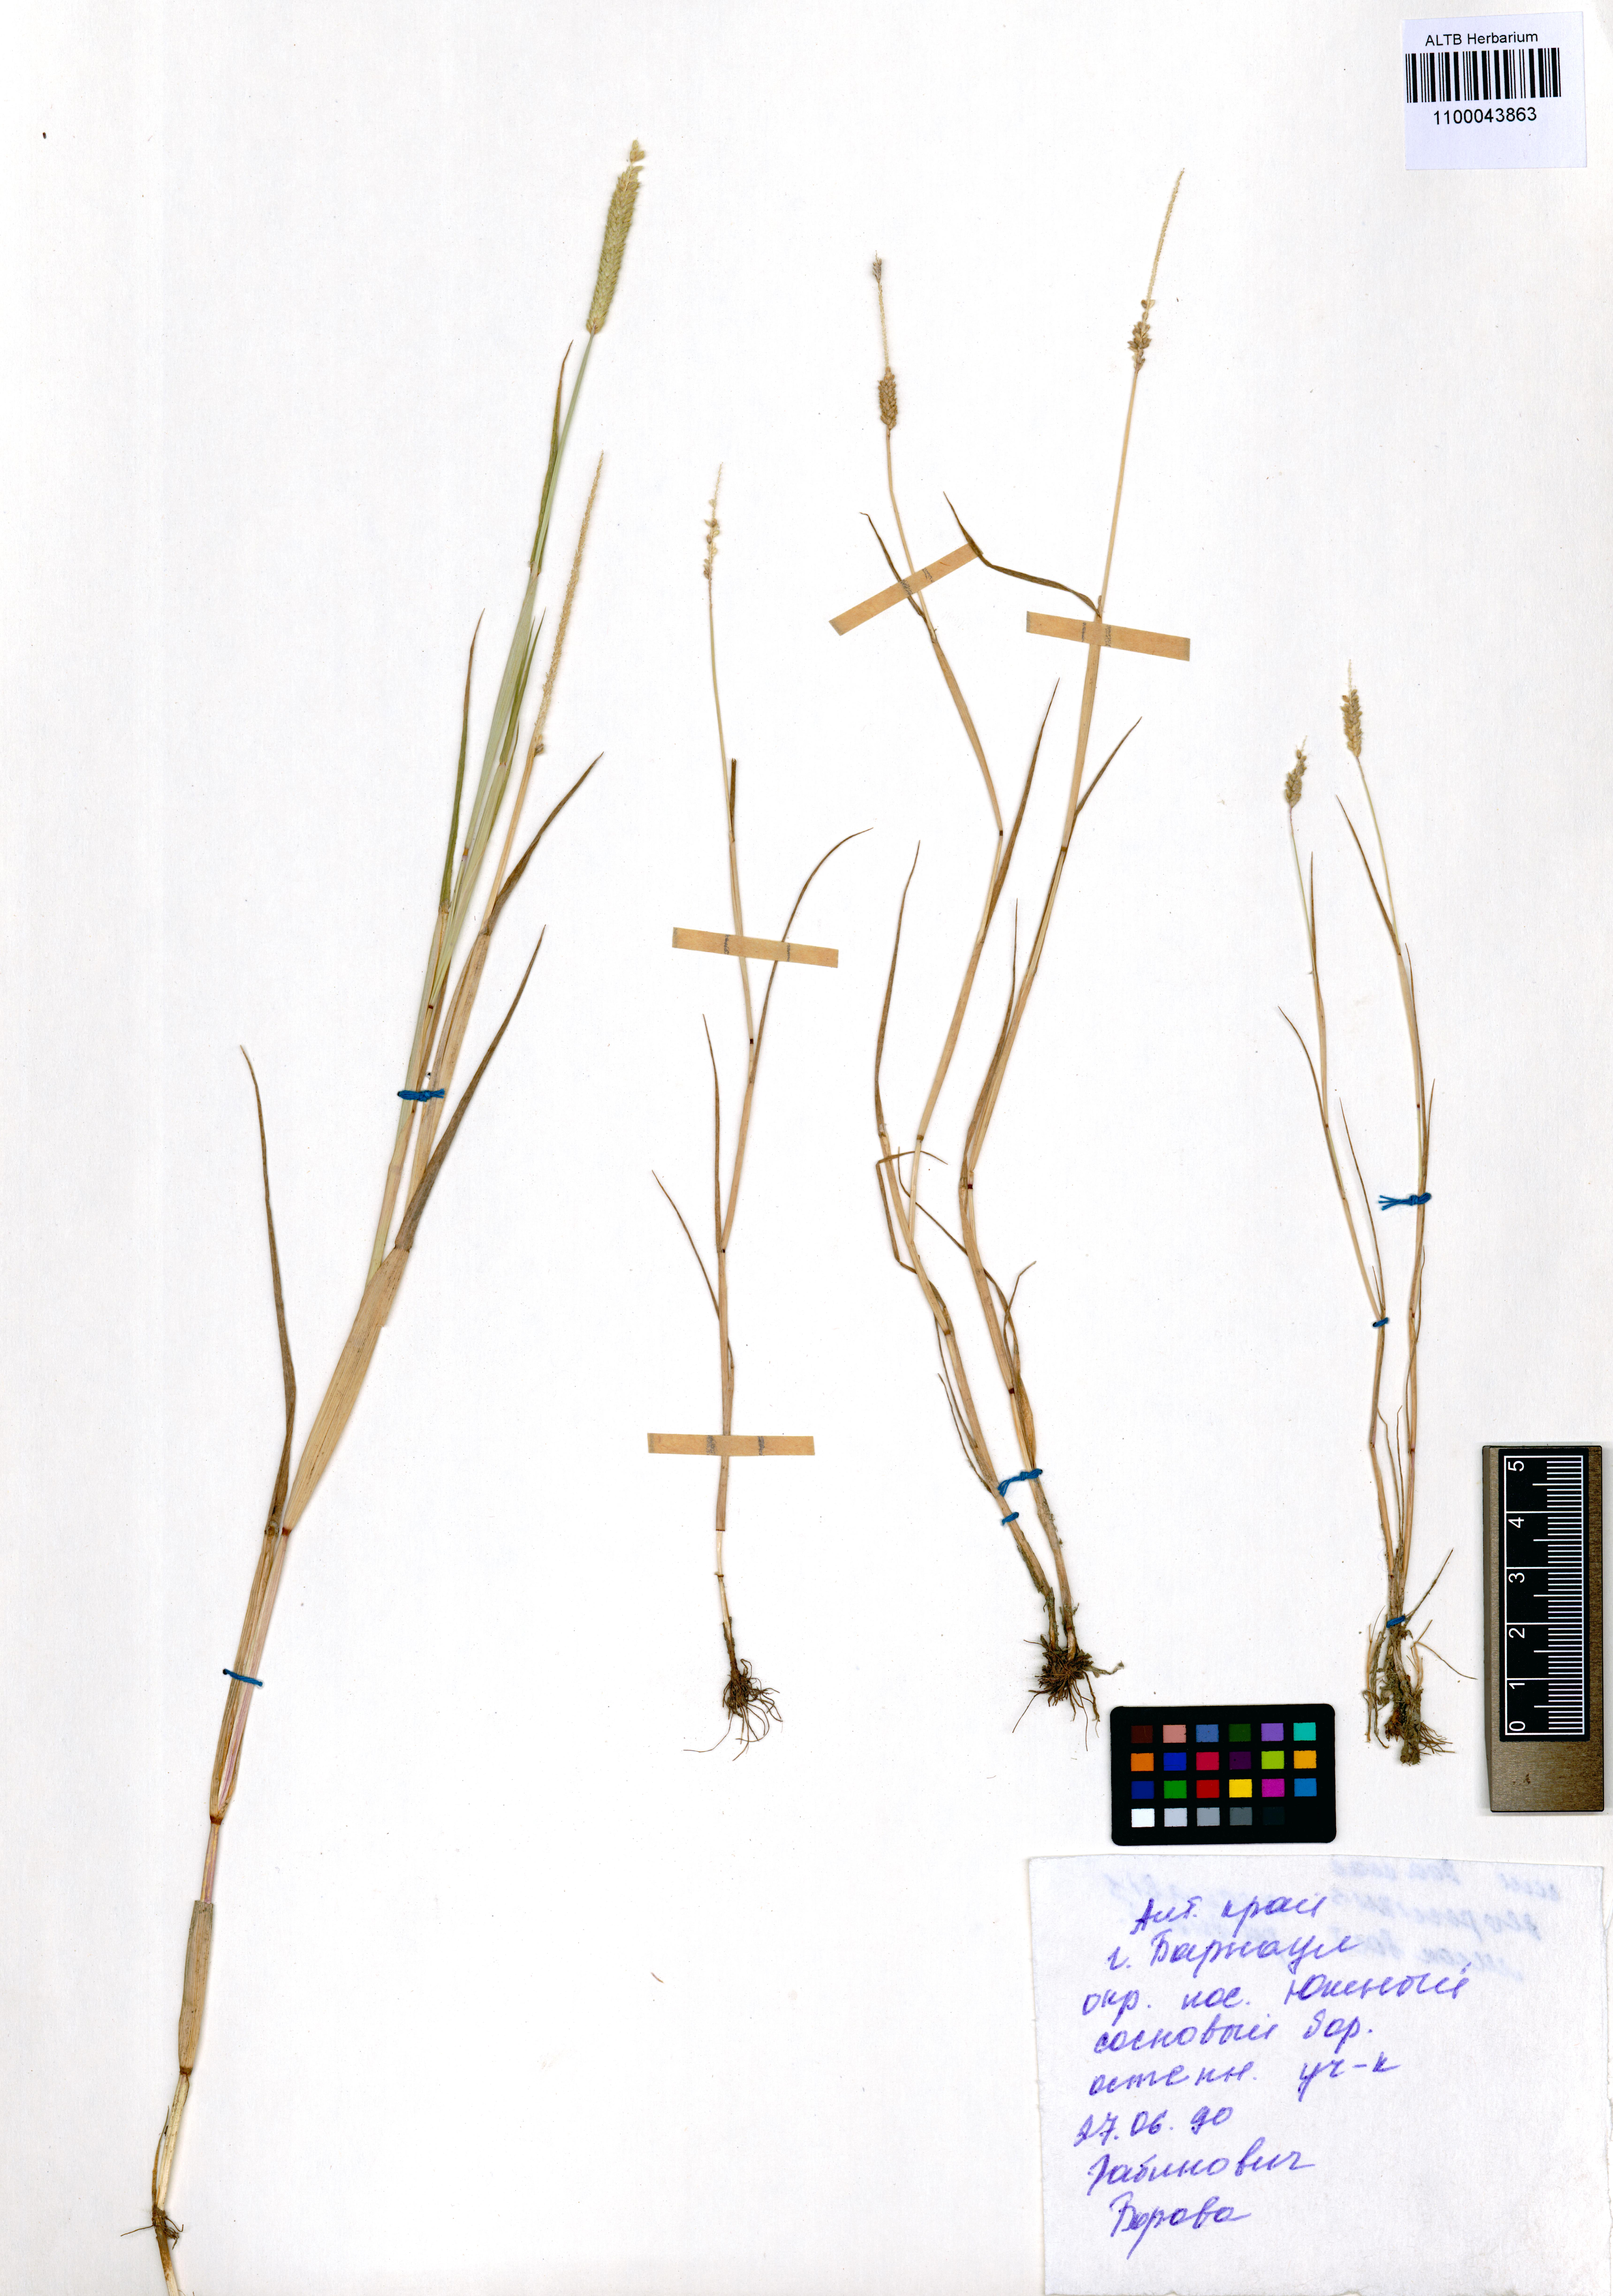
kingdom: Plantae
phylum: Tracheophyta
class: Liliopsida
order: Poales
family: Poaceae
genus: Alopecurus
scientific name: Alopecurus aequalis
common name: Orange foxtail
